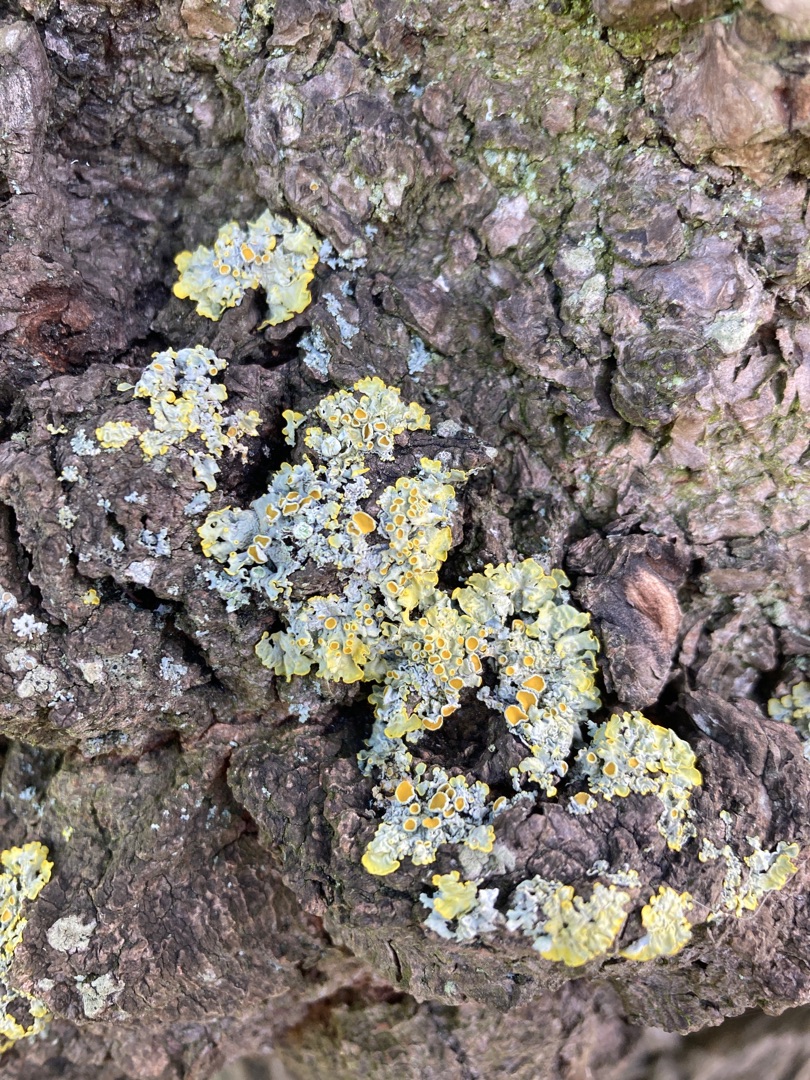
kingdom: Fungi
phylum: Ascomycota
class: Lecanoromycetes
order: Teloschistales
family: Teloschistaceae
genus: Xanthoria
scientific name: Xanthoria parietina
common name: Almindelig væggelav
